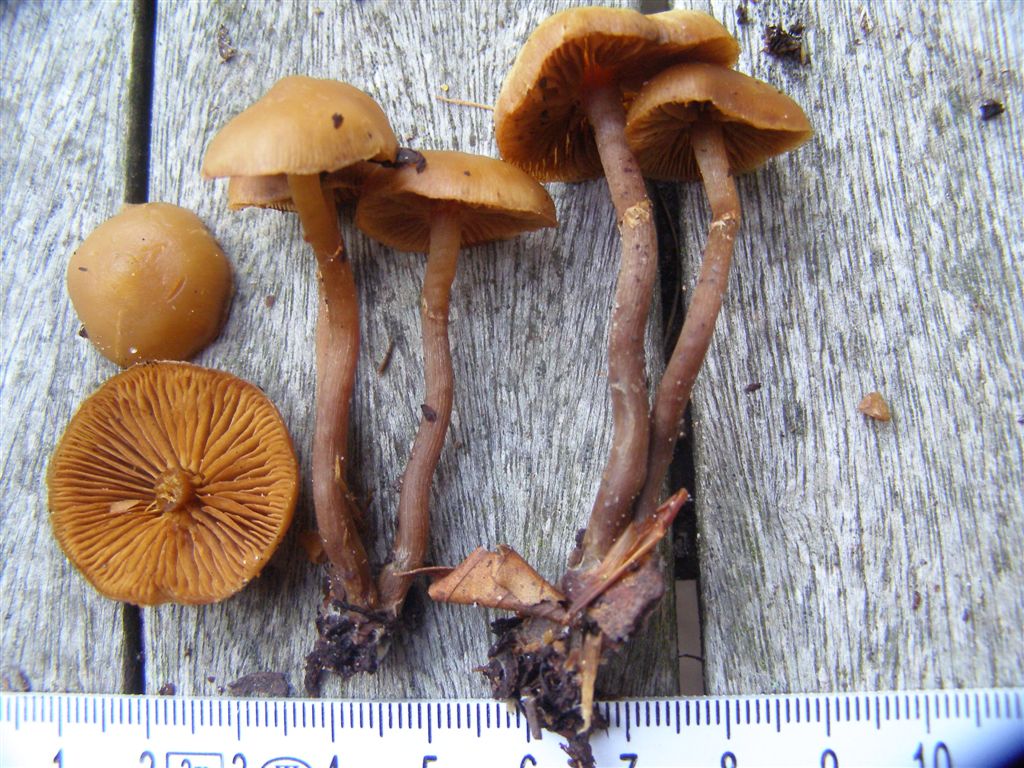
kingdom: Fungi
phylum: Basidiomycota
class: Agaricomycetes
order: Agaricales
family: Hymenogastraceae
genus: Galerina
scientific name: Galerina marginata
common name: randbæltet hjelmhat
